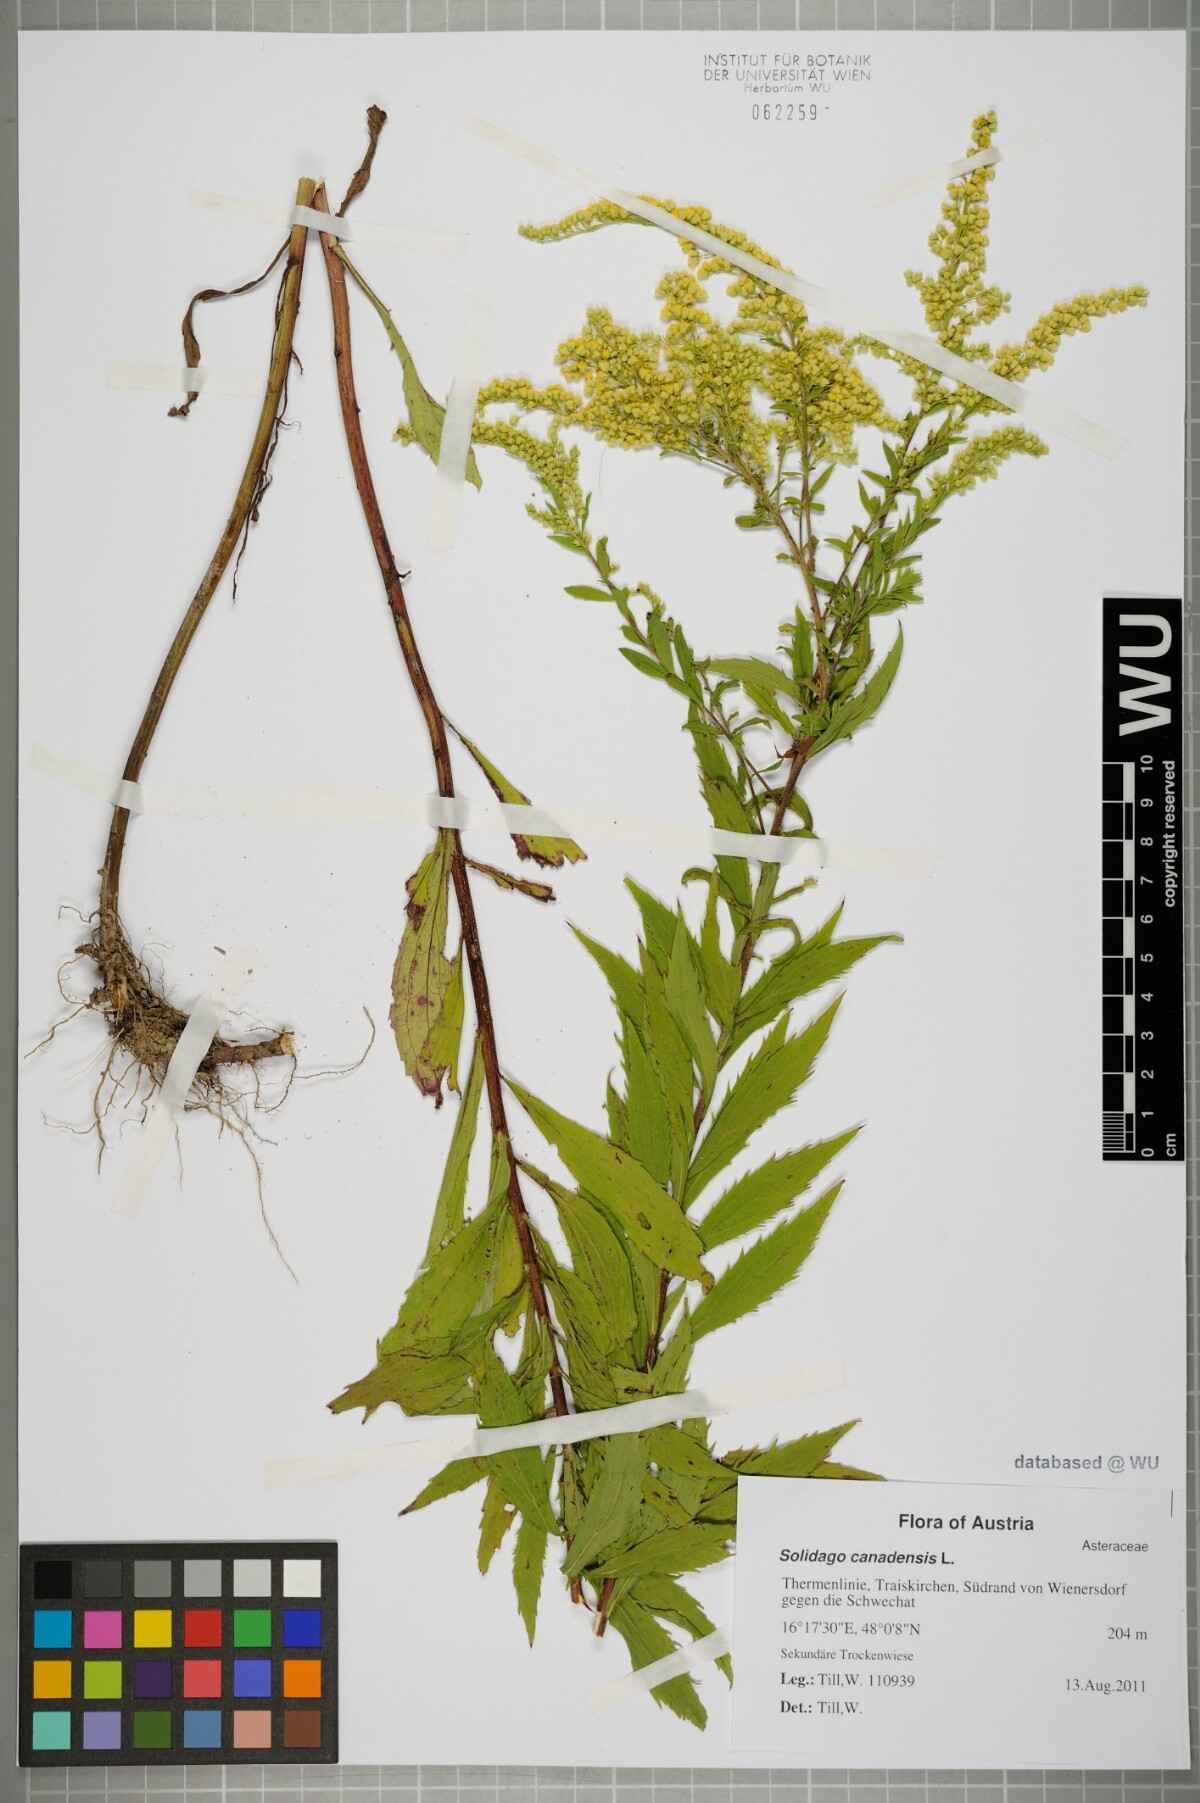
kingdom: Plantae
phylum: Tracheophyta
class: Magnoliopsida
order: Asterales
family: Asteraceae
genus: Solidago
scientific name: Solidago canadensis
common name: Canada goldenrod
